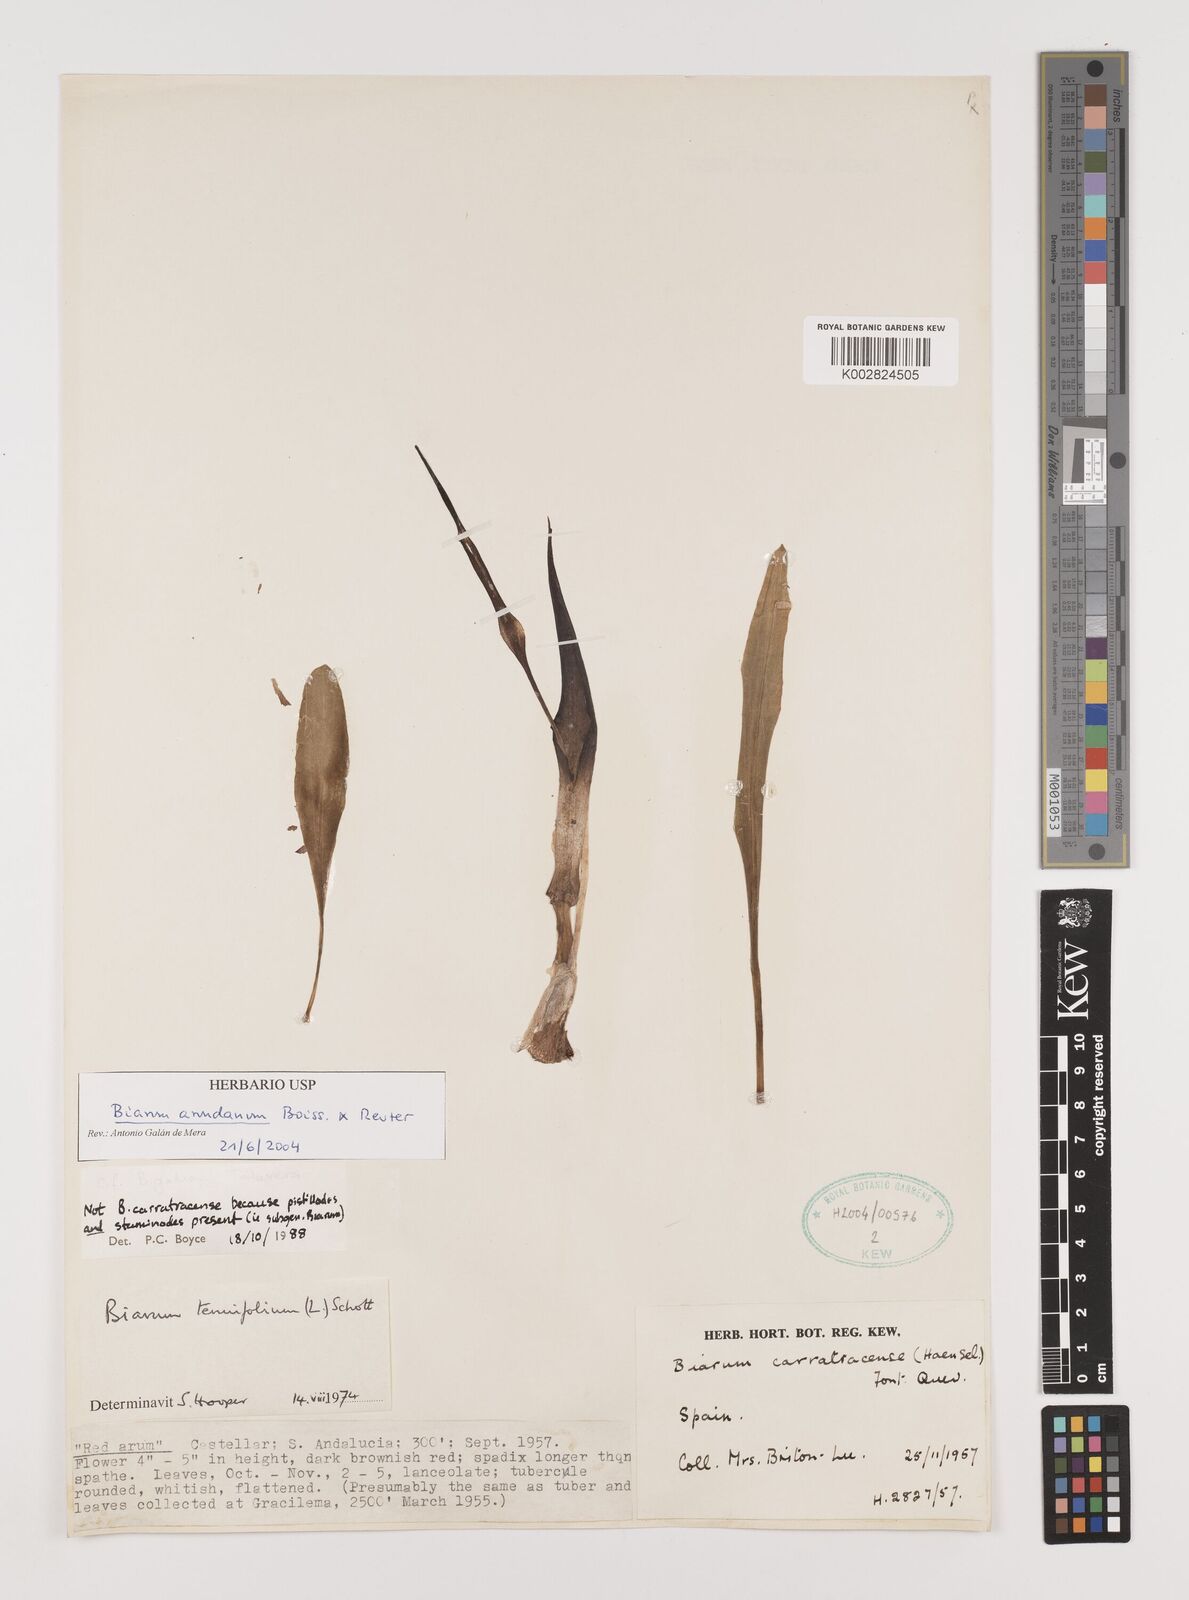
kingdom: Plantae
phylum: Tracheophyta
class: Liliopsida
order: Alismatales
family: Araceae
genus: Biarum
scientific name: Biarum tenuifolium
